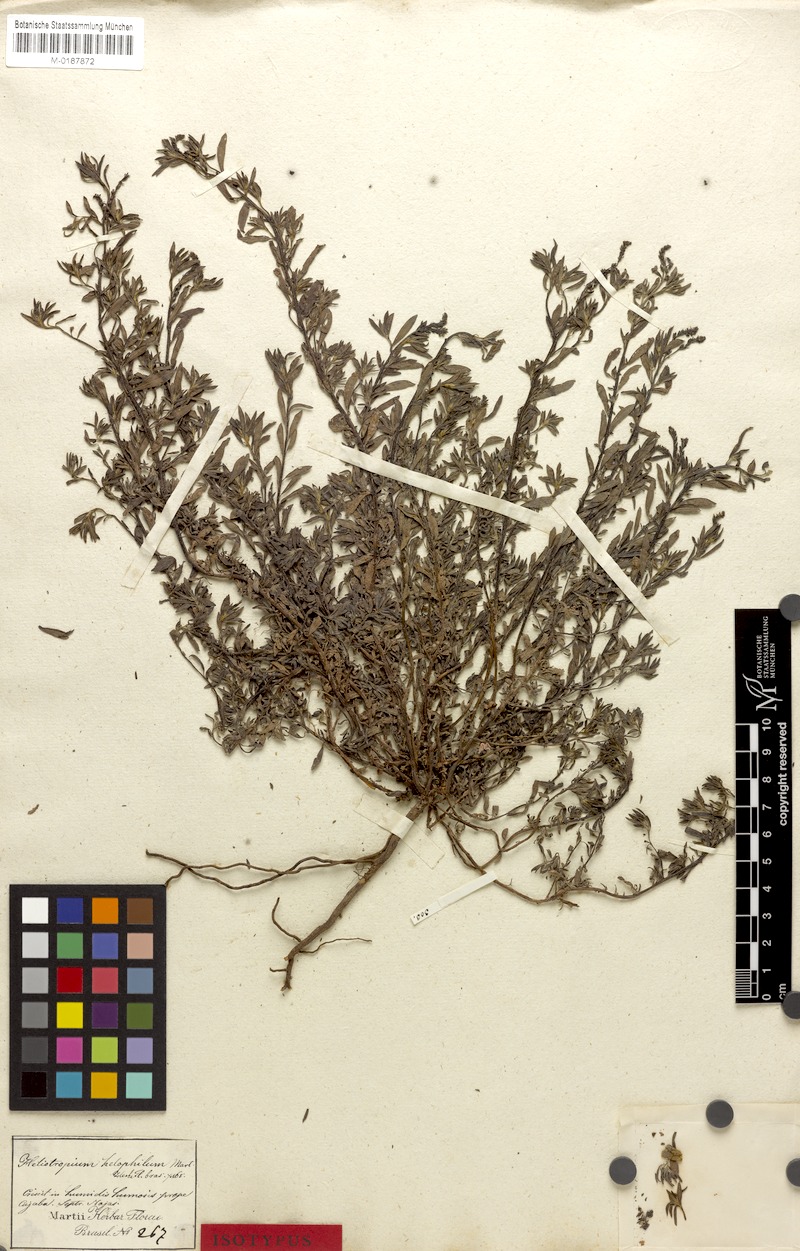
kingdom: Plantae
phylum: Tracheophyta
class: Magnoliopsida
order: Boraginales
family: Heliotropiaceae
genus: Euploca
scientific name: Euploca filiformis
